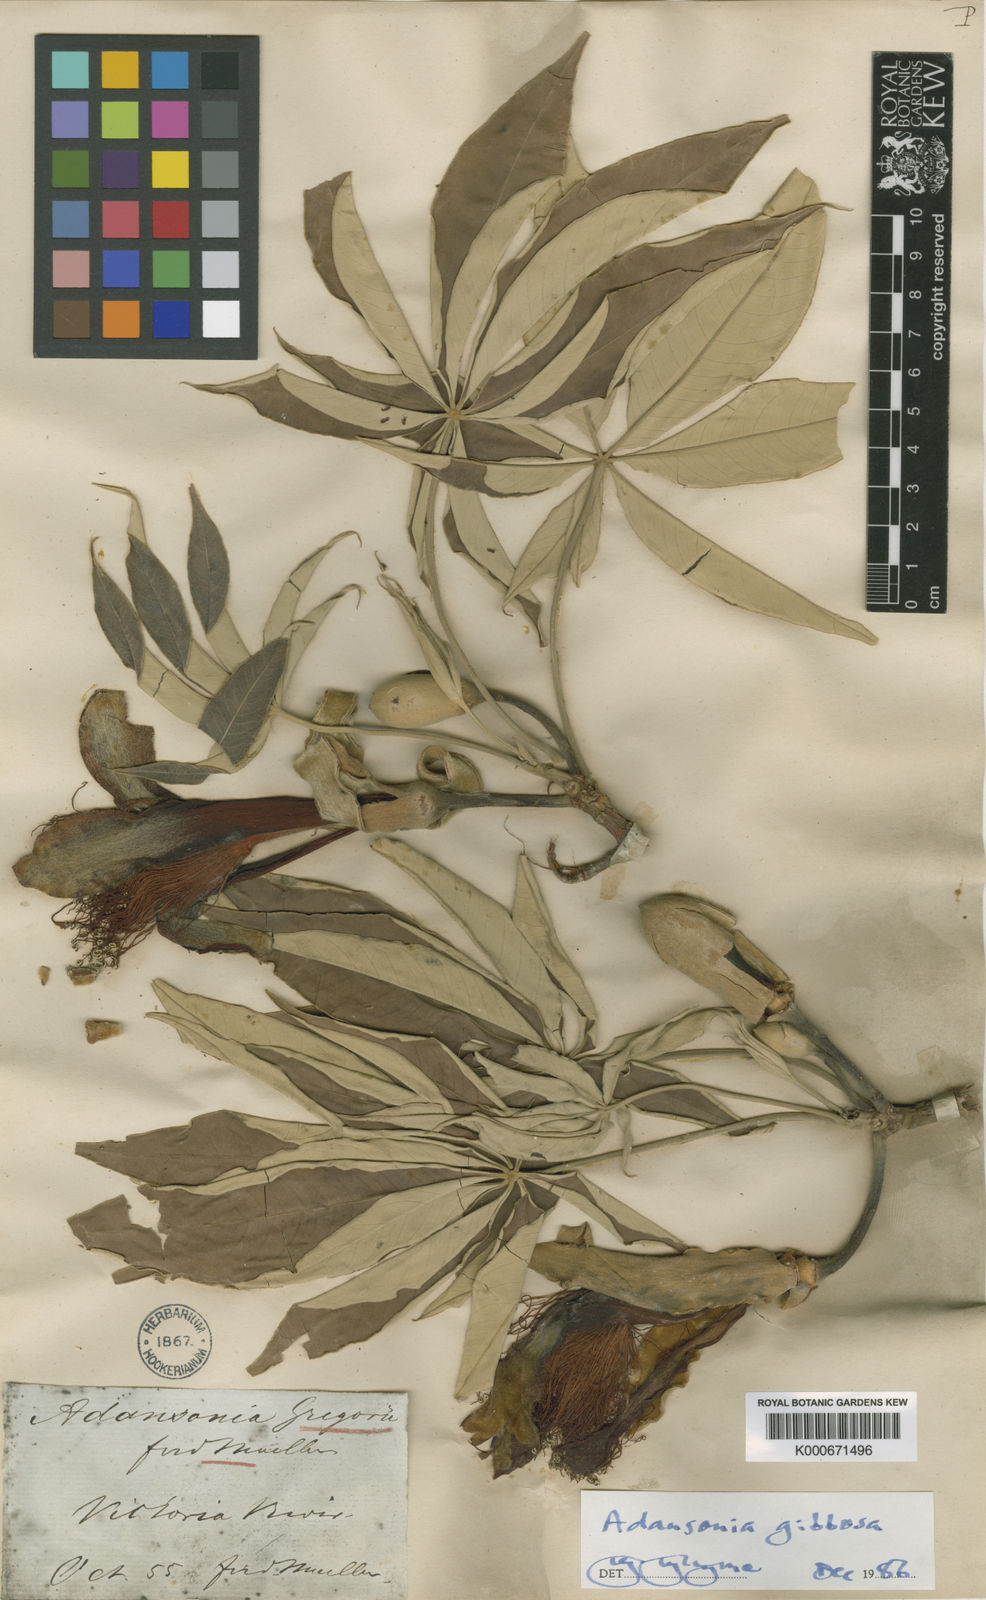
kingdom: Plantae
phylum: Tracheophyta
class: Magnoliopsida
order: Malvales
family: Malvaceae
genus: Adansonia
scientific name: Adansonia gregorii
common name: Australian baobab
